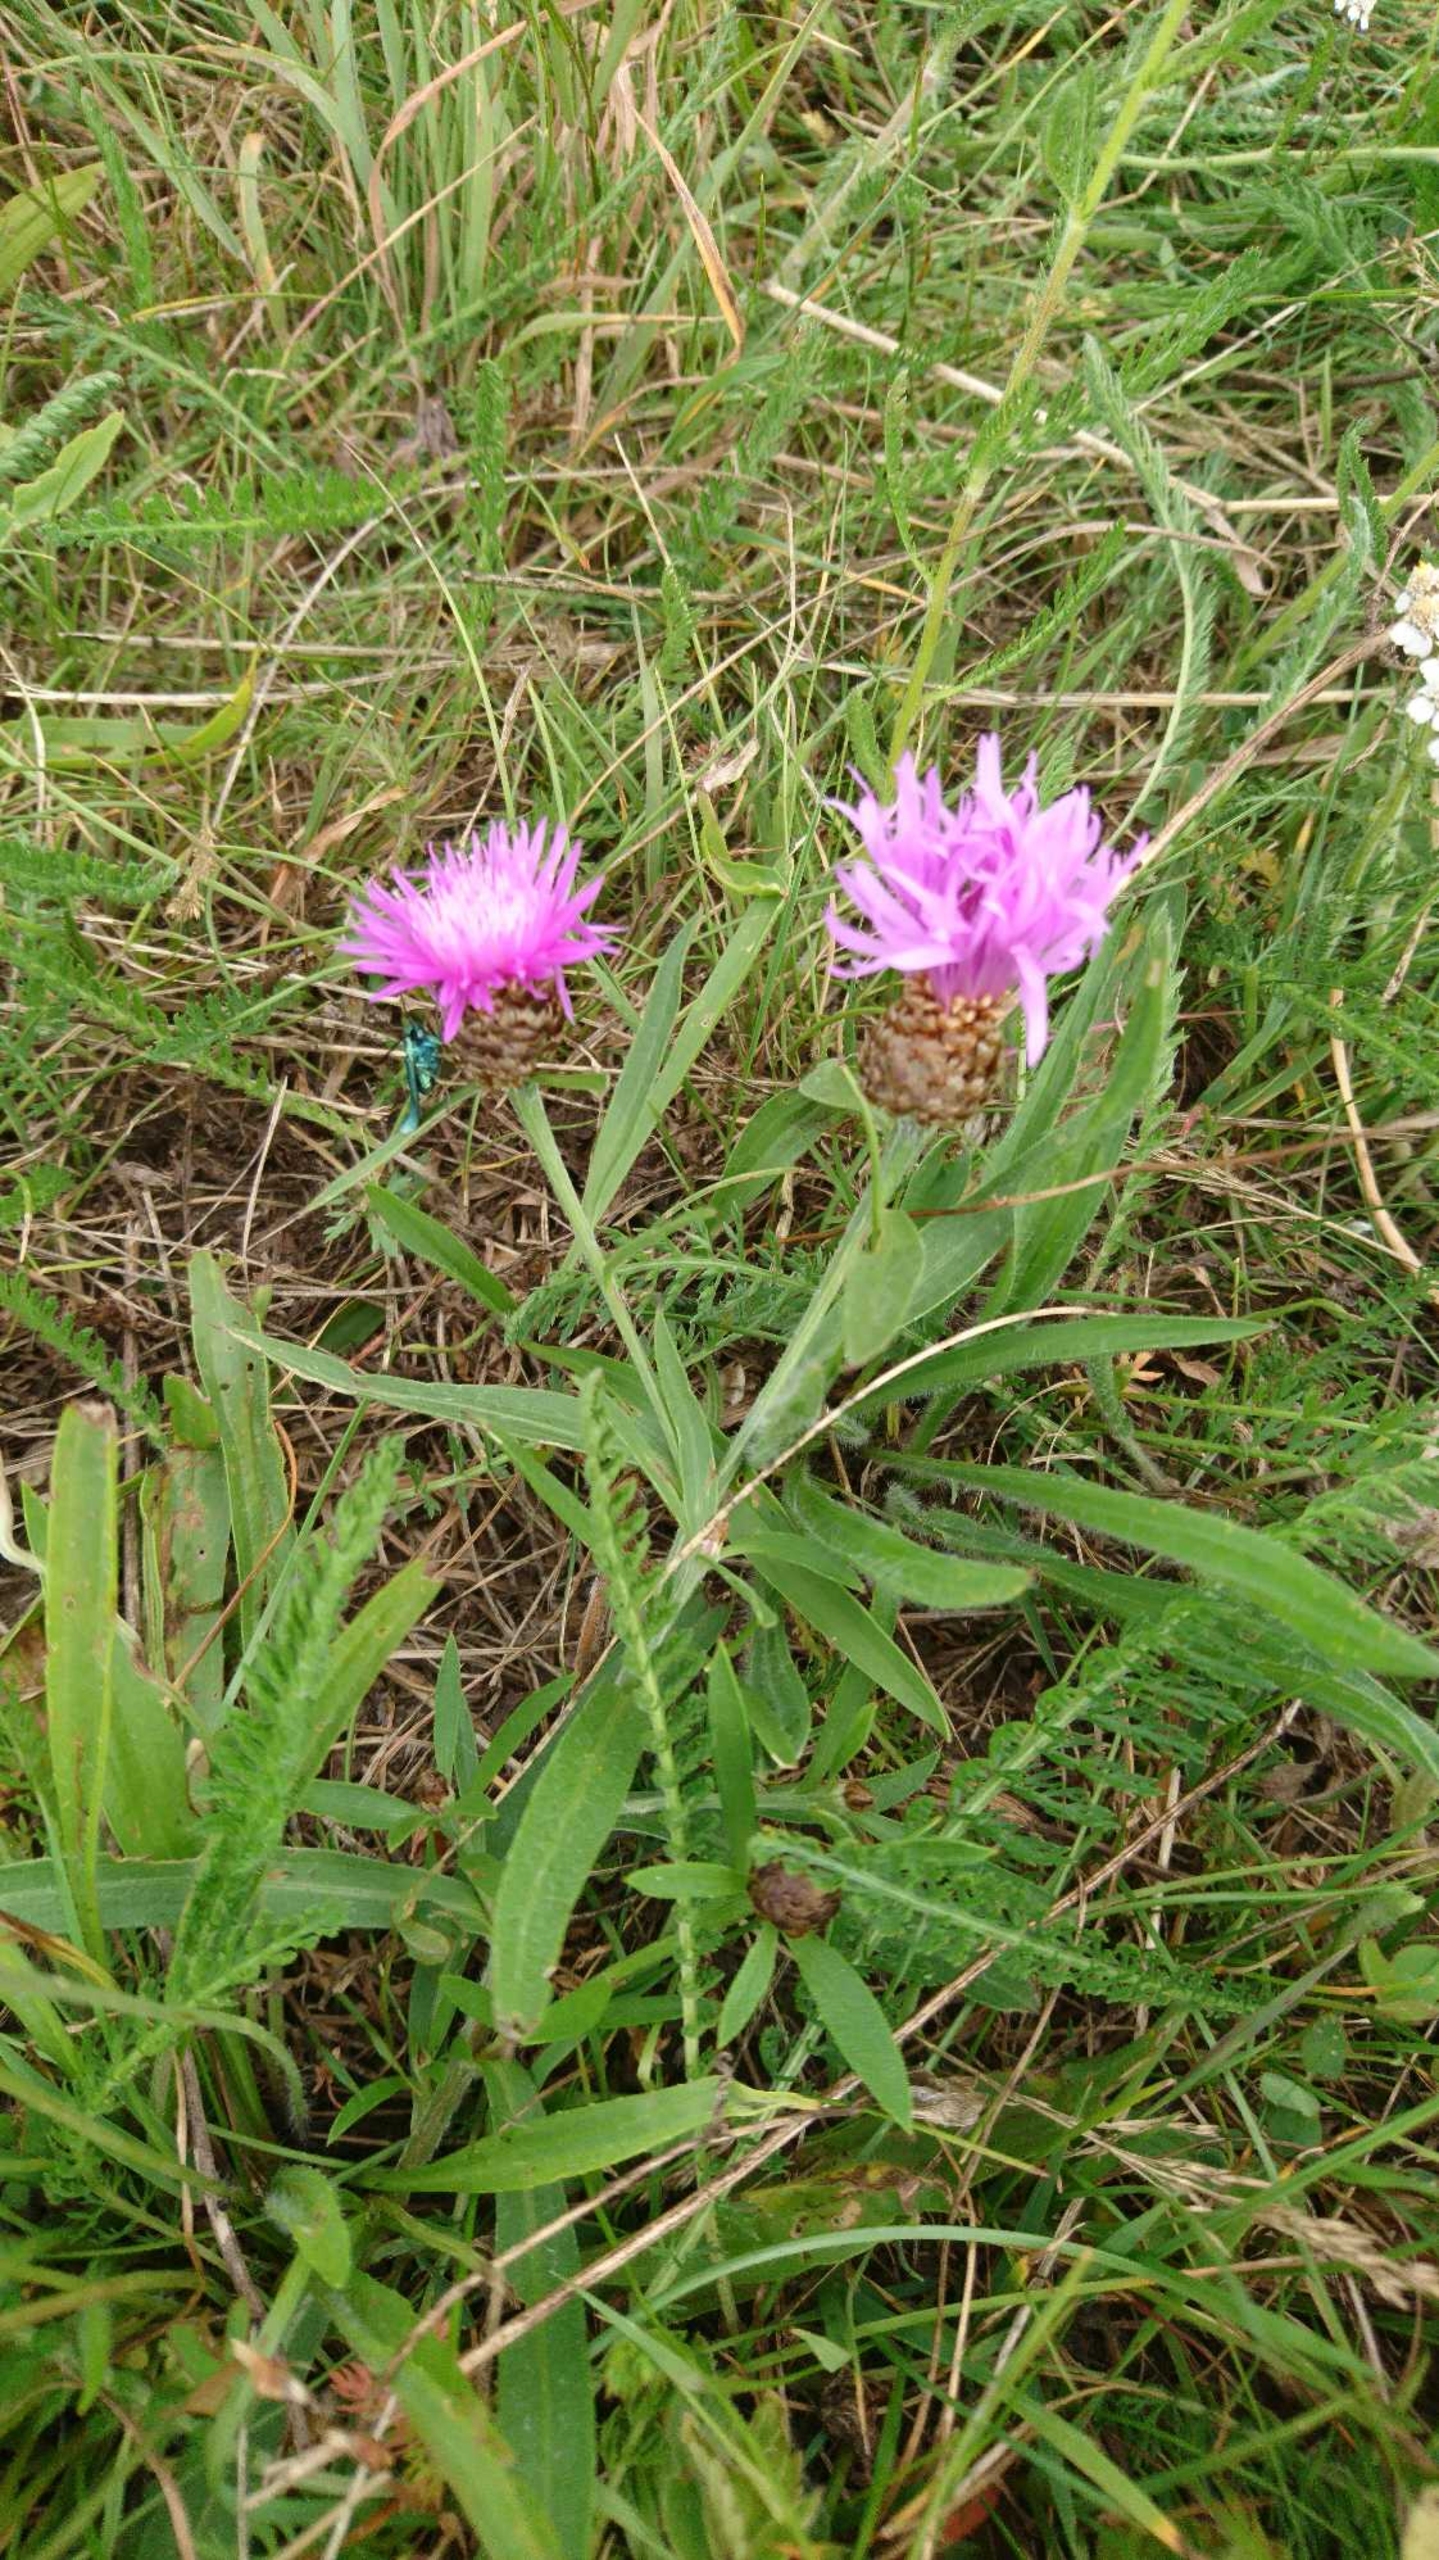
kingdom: Plantae
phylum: Tracheophyta
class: Magnoliopsida
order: Asterales
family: Asteraceae
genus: Centaurea
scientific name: Centaurea jacea
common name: Almindelig knopurt
